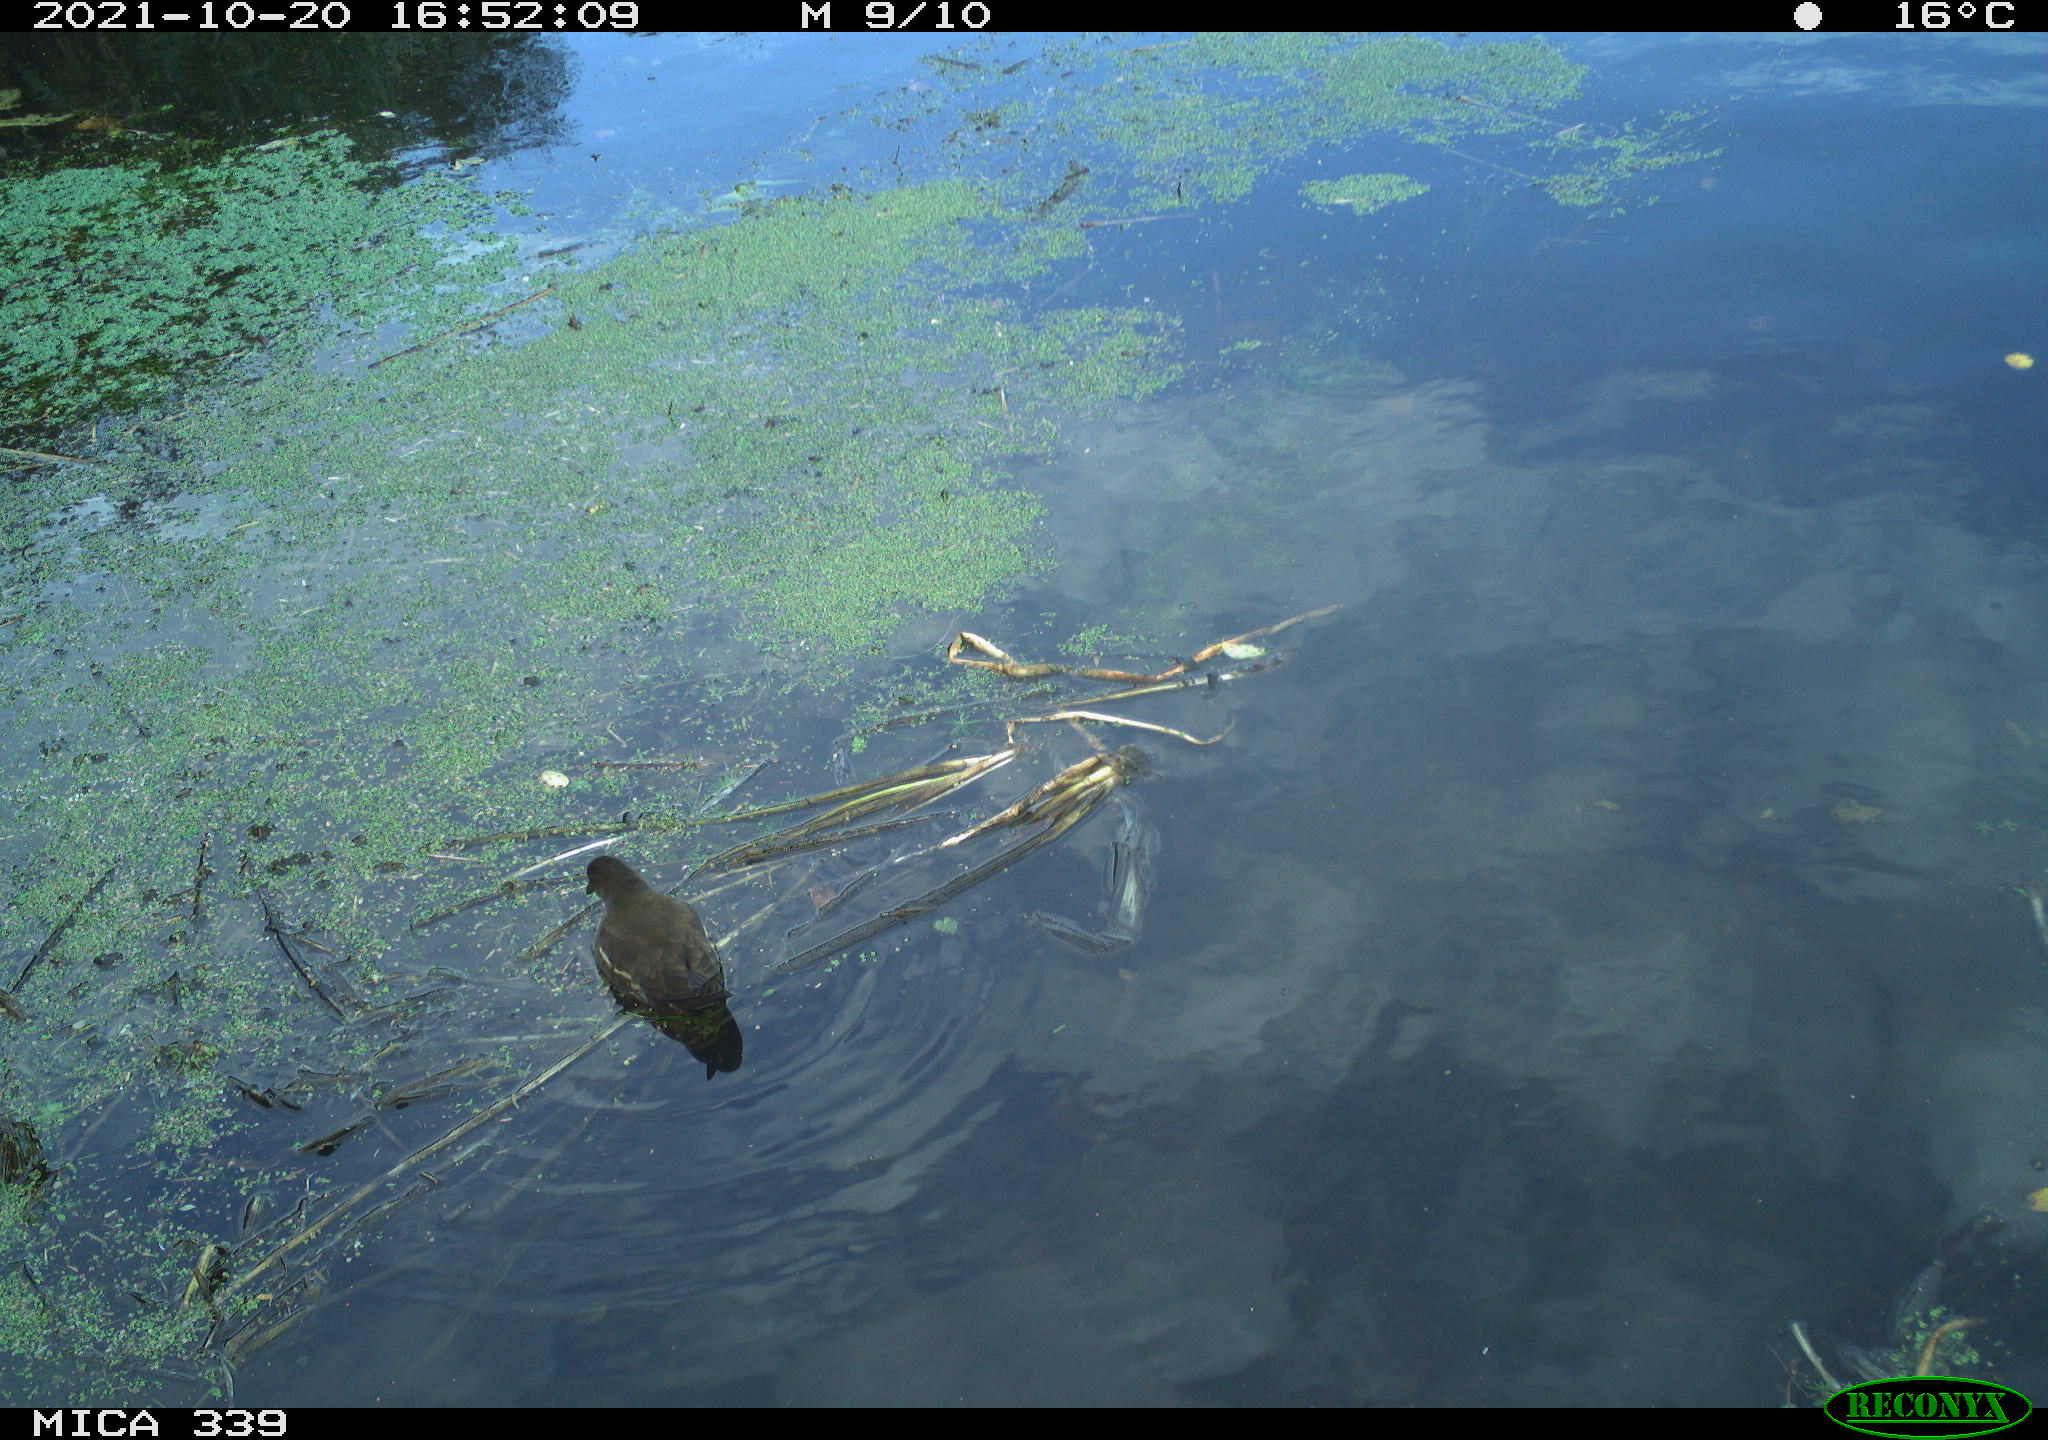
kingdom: Animalia
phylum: Chordata
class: Aves
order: Gruiformes
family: Rallidae
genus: Gallinula
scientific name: Gallinula chloropus
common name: Common moorhen
